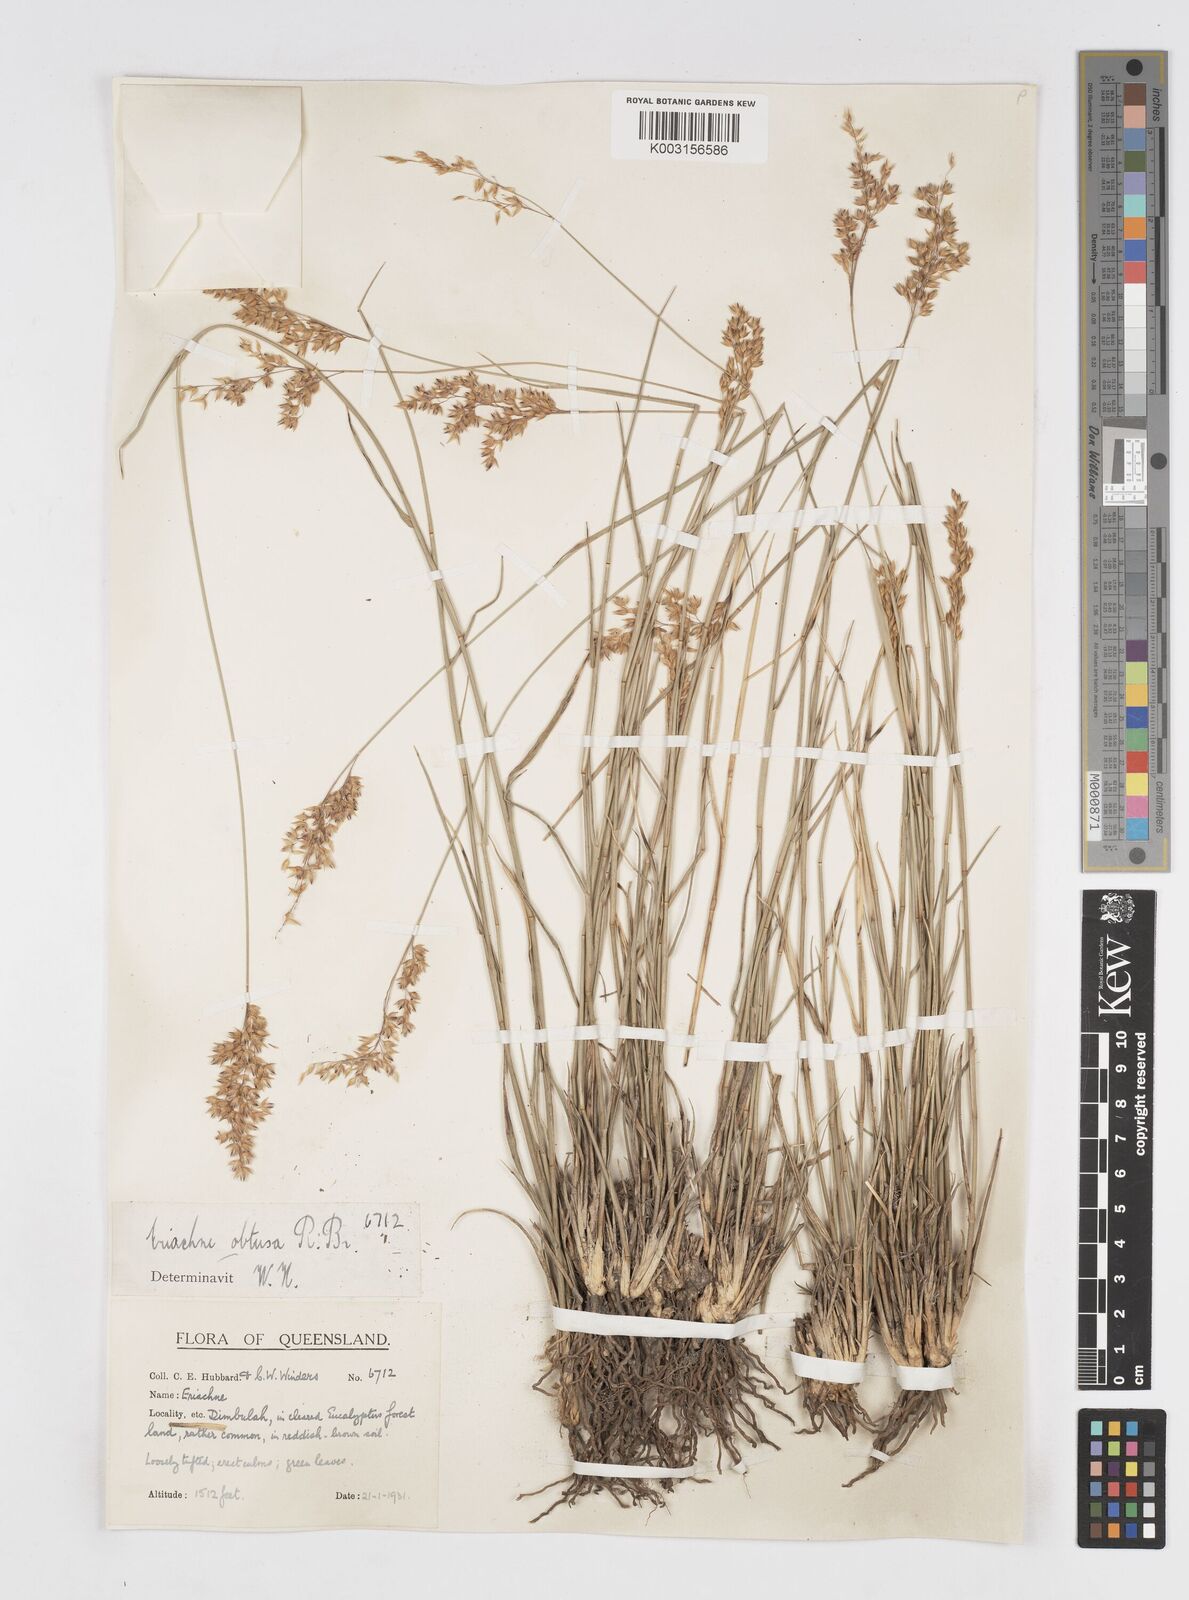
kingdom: Plantae
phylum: Tracheophyta
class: Liliopsida
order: Poales
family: Poaceae
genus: Eriachne
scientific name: Eriachne obtusa
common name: Northern wanderrie grass
